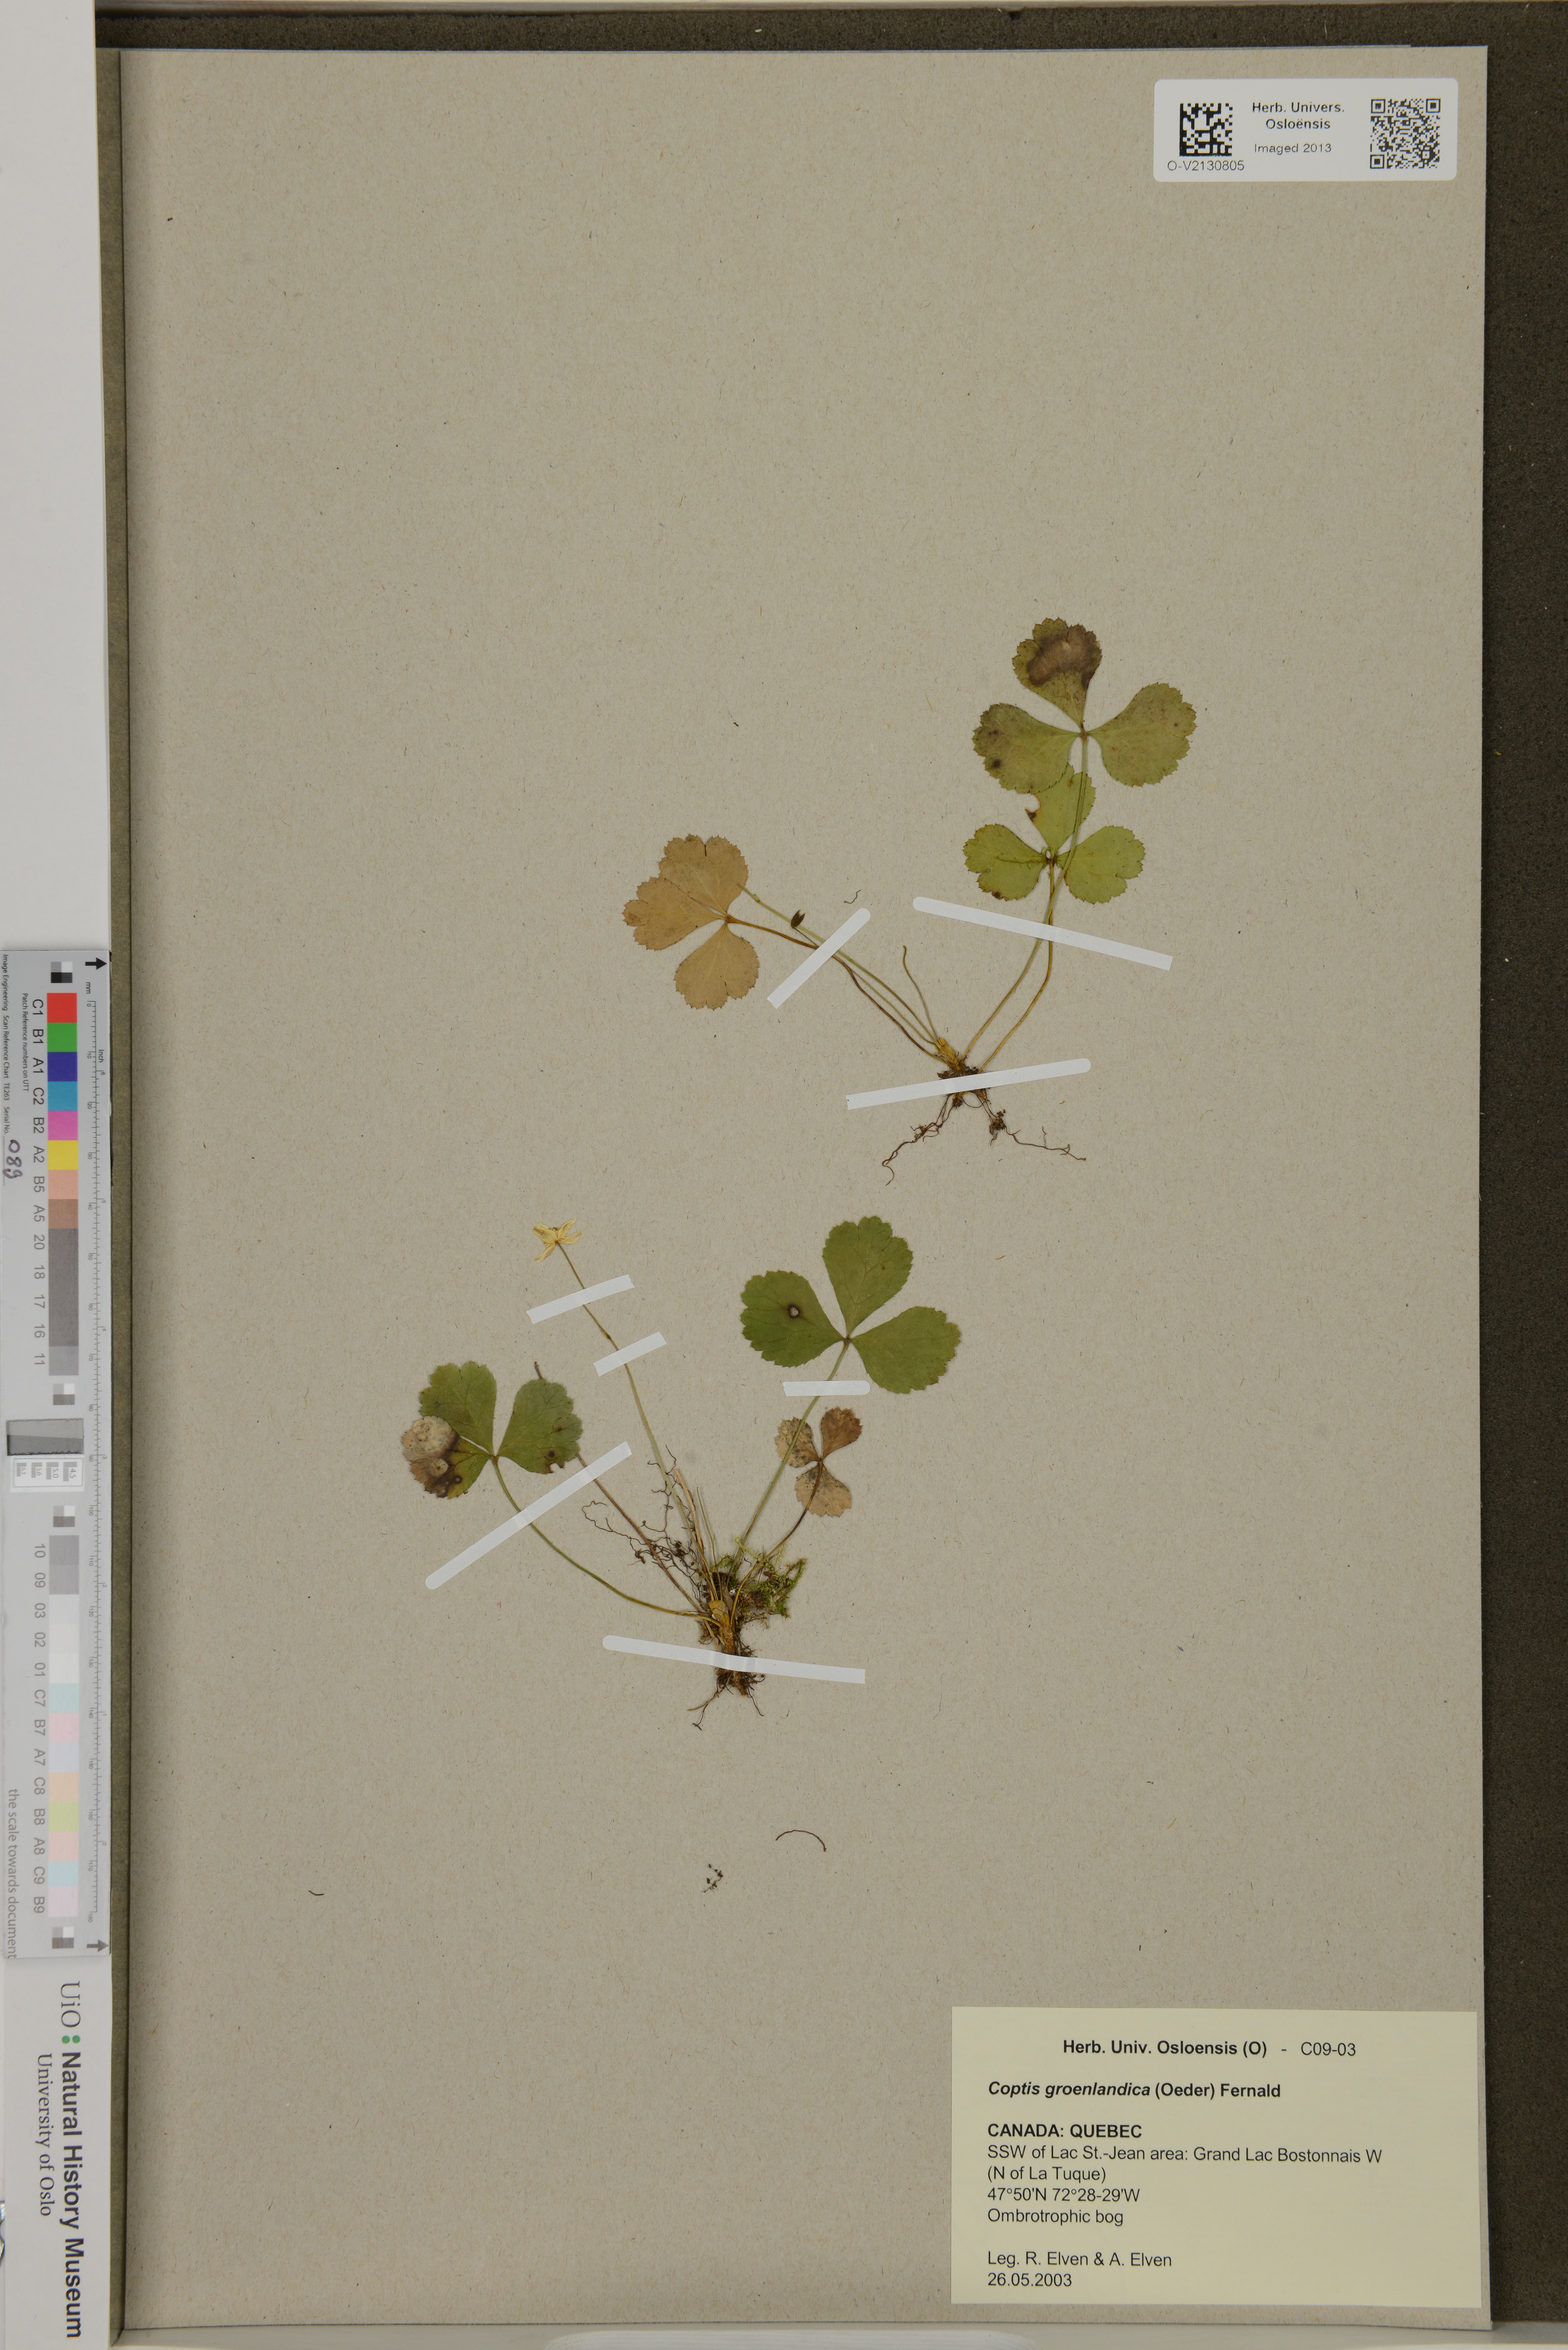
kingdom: Plantae
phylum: Tracheophyta
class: Magnoliopsida
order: Ranunculales
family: Ranunculaceae
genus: Coptis
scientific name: Coptis trifolia
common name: Canker-root
